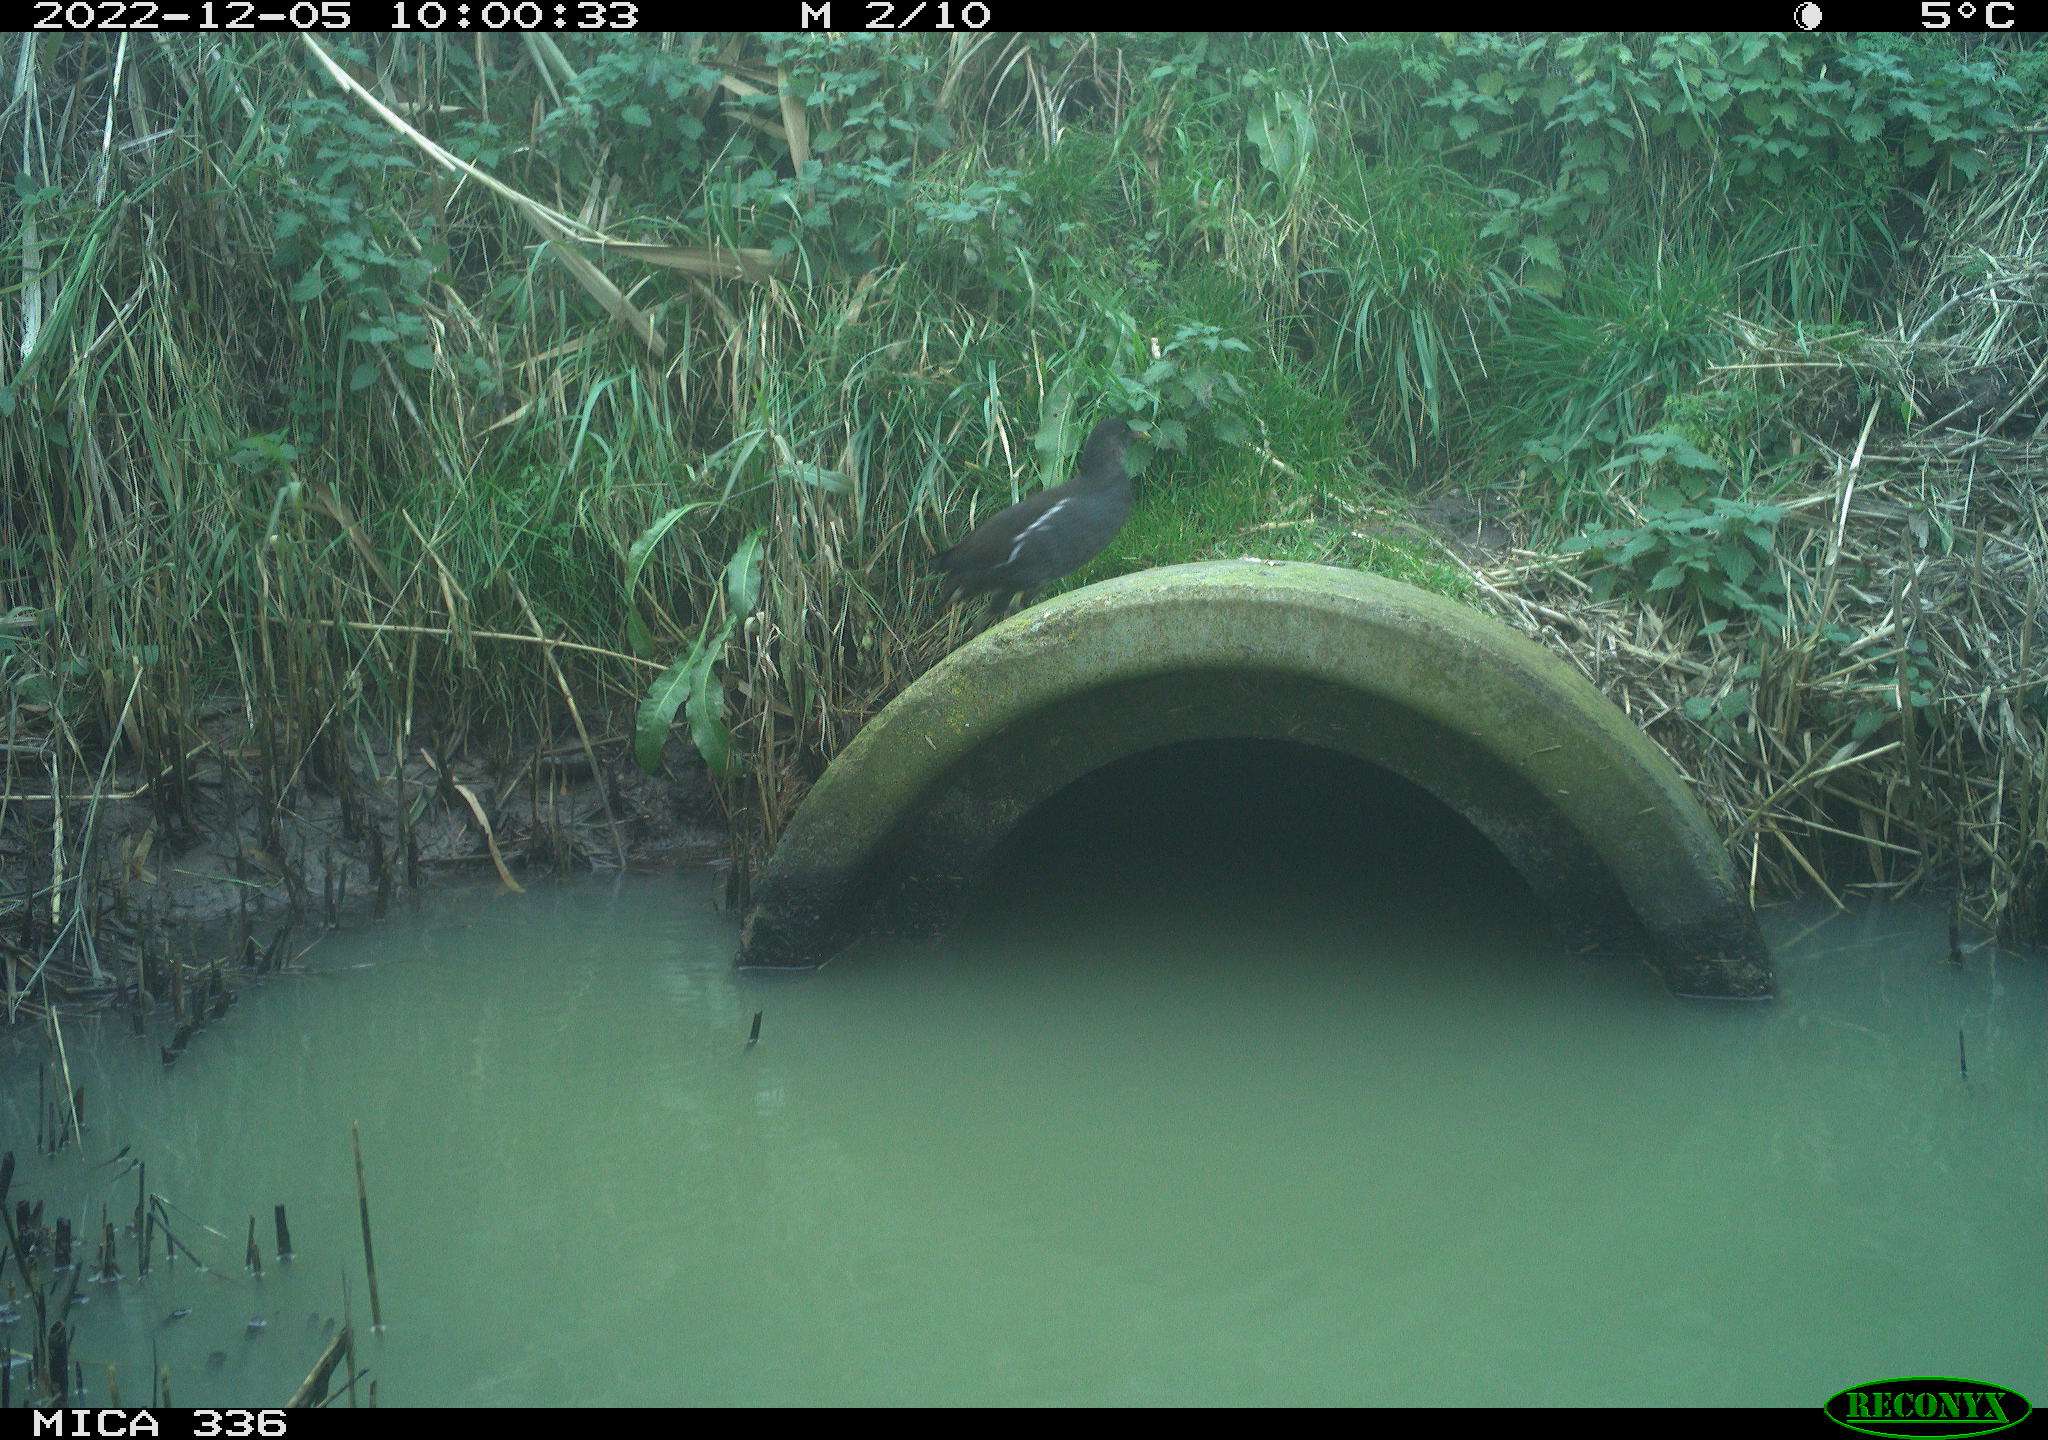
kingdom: Animalia
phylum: Chordata
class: Aves
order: Gruiformes
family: Rallidae
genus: Gallinula
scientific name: Gallinula chloropus
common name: Common moorhen
